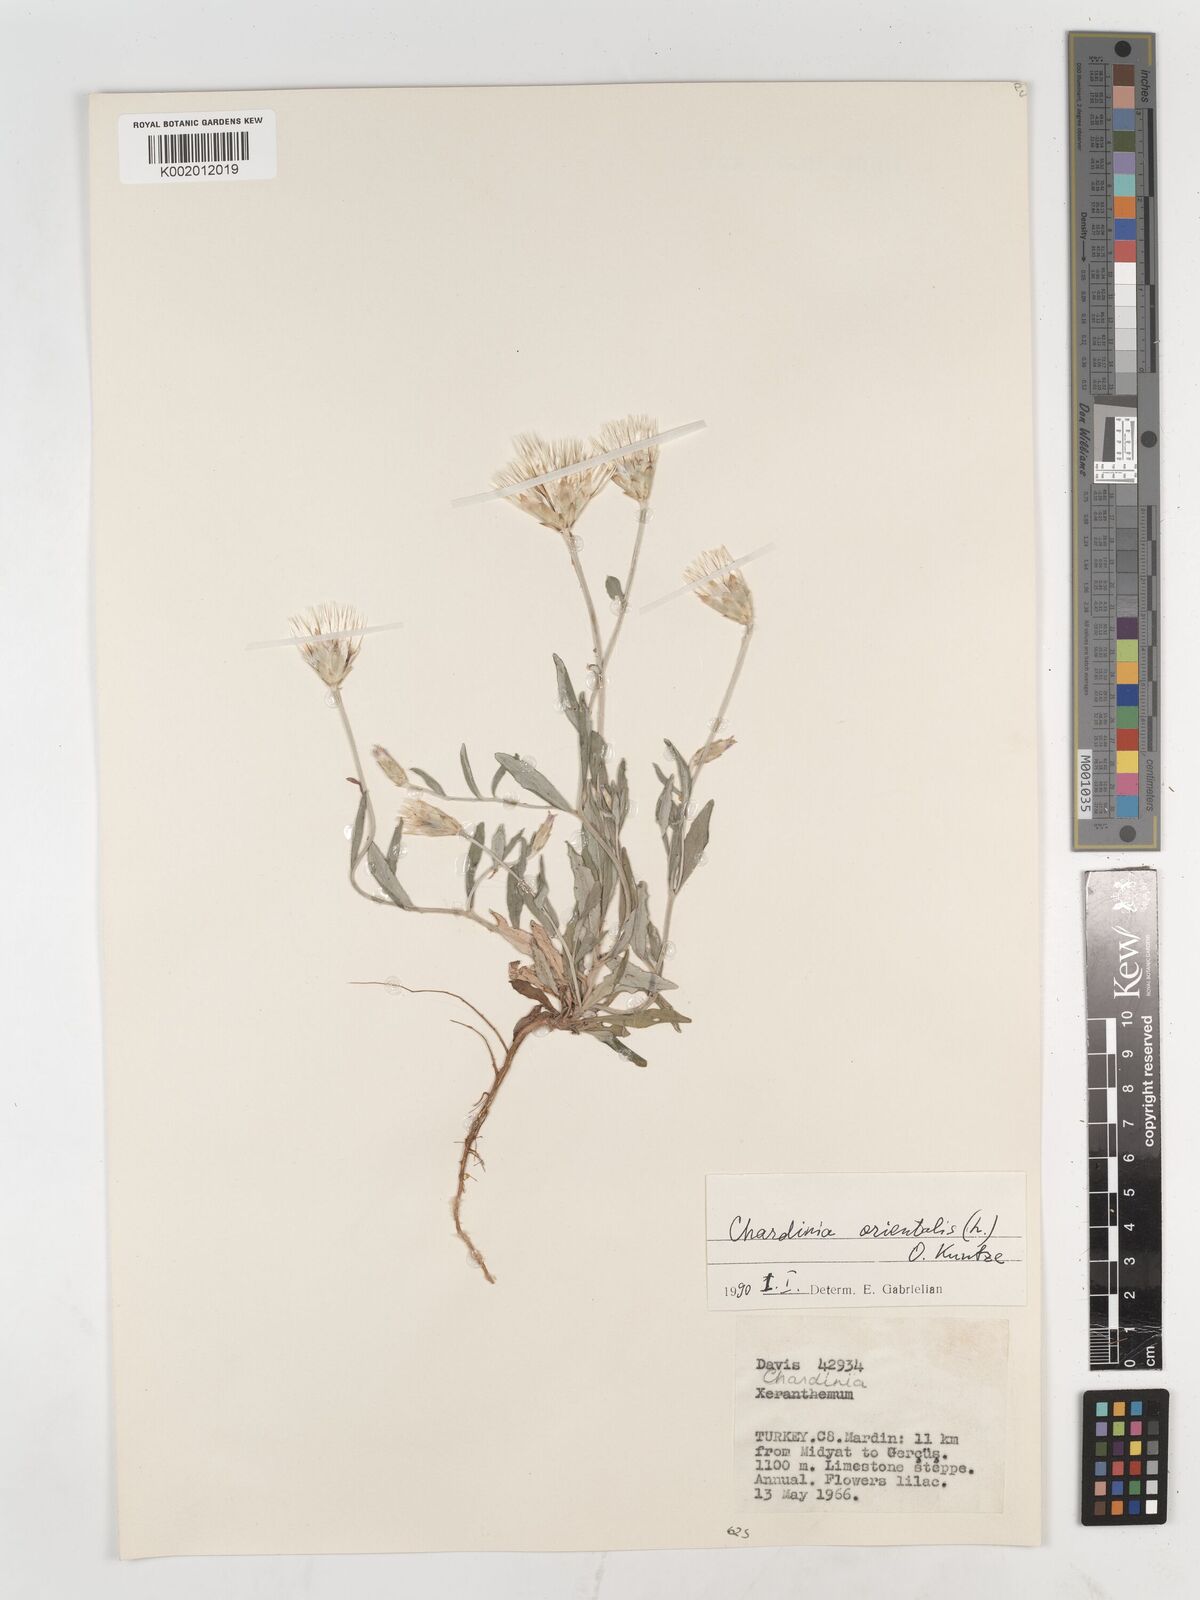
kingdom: Plantae
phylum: Tracheophyta
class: Magnoliopsida
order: Asterales
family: Asteraceae
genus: Chardinia
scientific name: Chardinia orientalis
